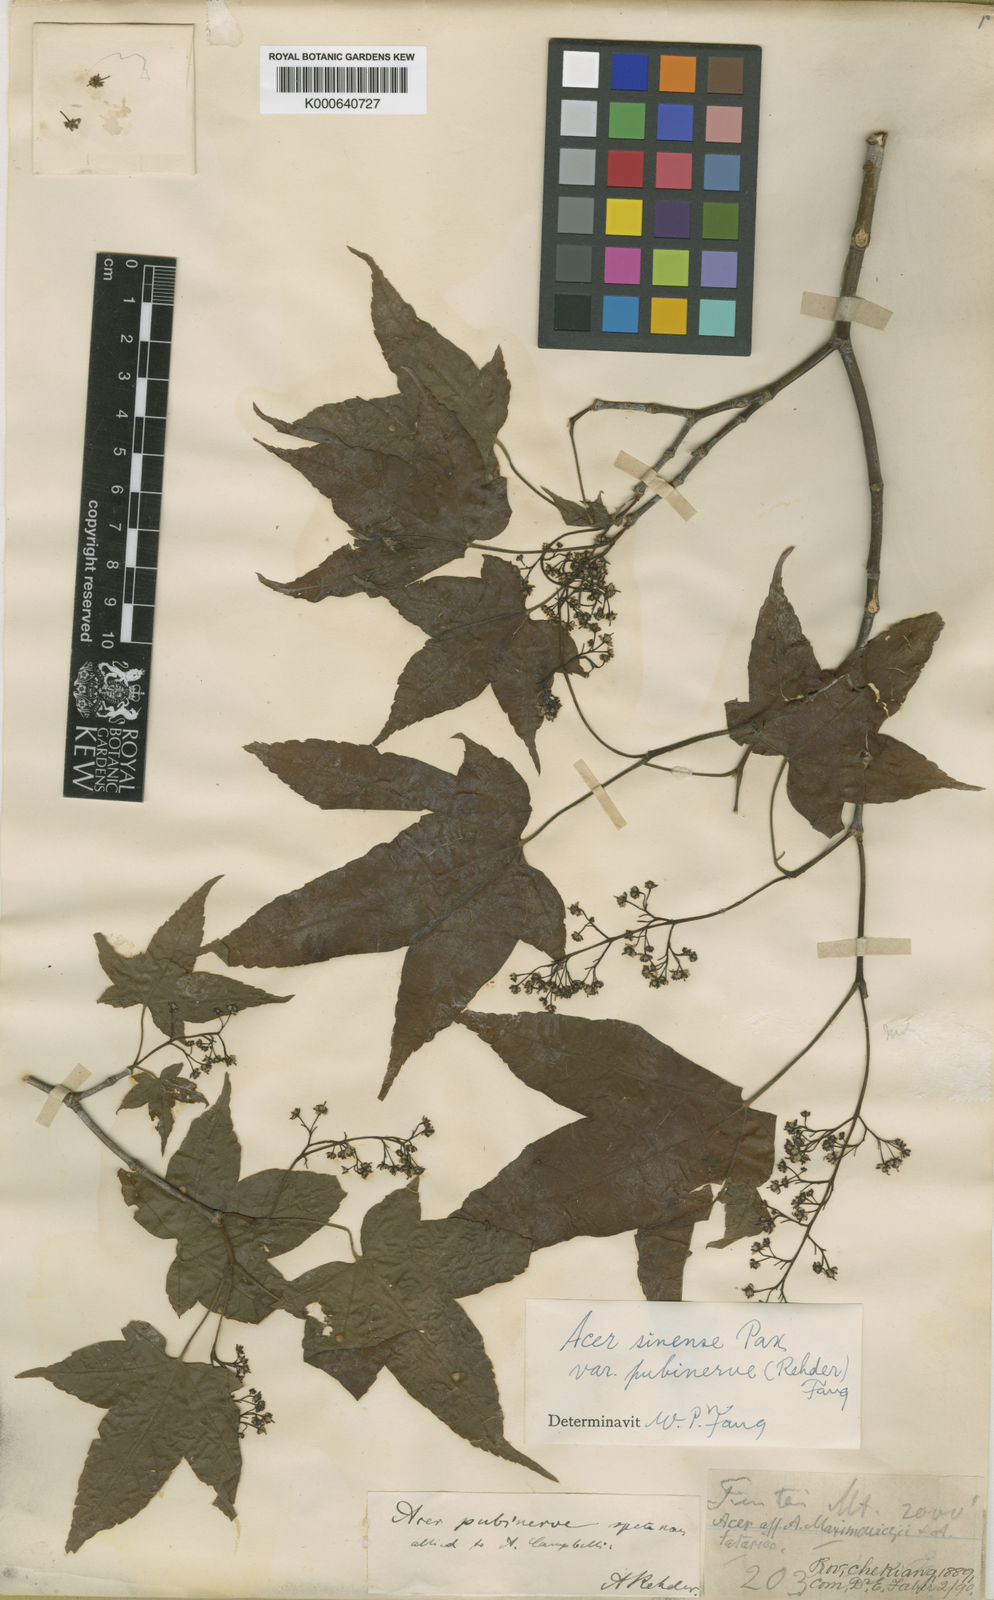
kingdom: Plantae
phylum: Tracheophyta
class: Magnoliopsida
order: Sapindales
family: Sapindaceae
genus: Acer
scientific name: Acer
